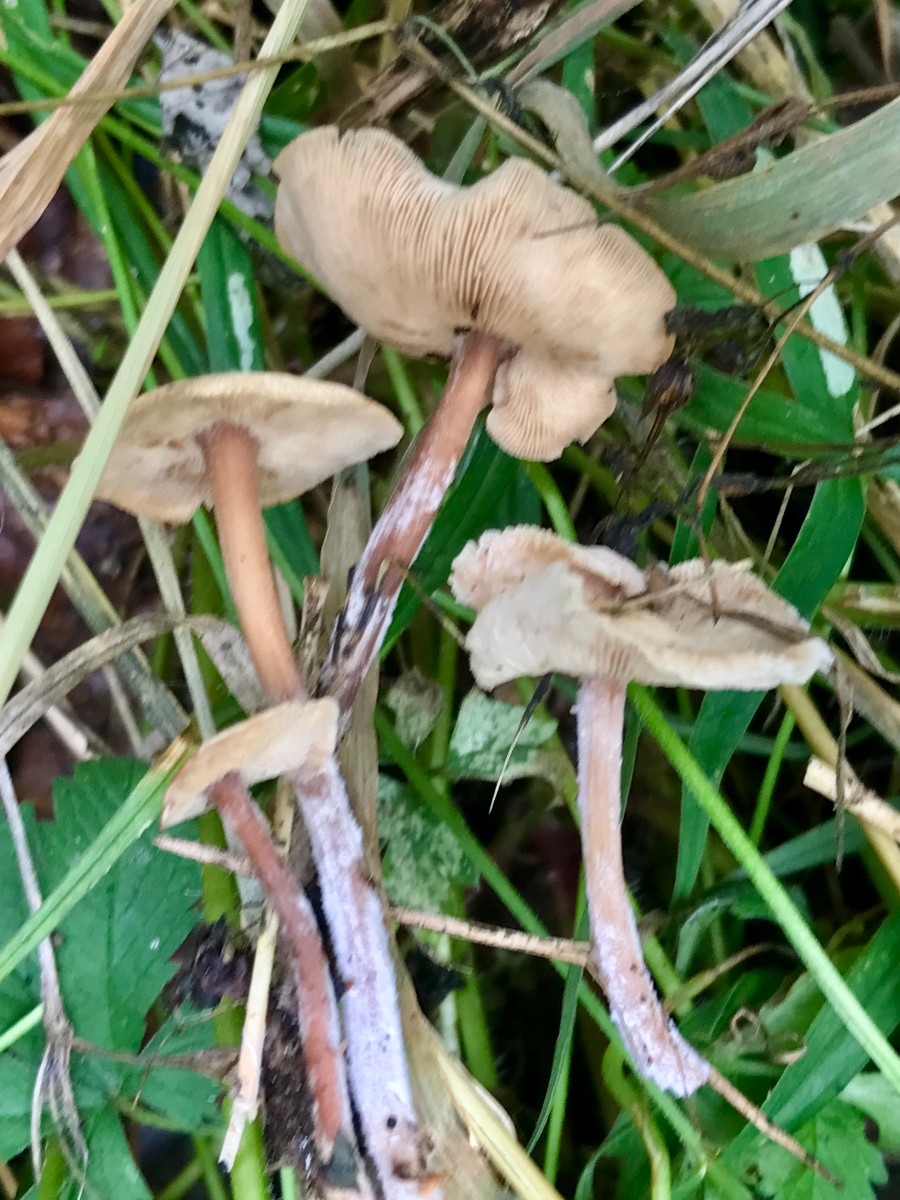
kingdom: Fungi
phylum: Basidiomycota
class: Agaricomycetes
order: Agaricales
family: Omphalotaceae
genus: Collybiopsis
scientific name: Collybiopsis confluens
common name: knippe-fladhat
